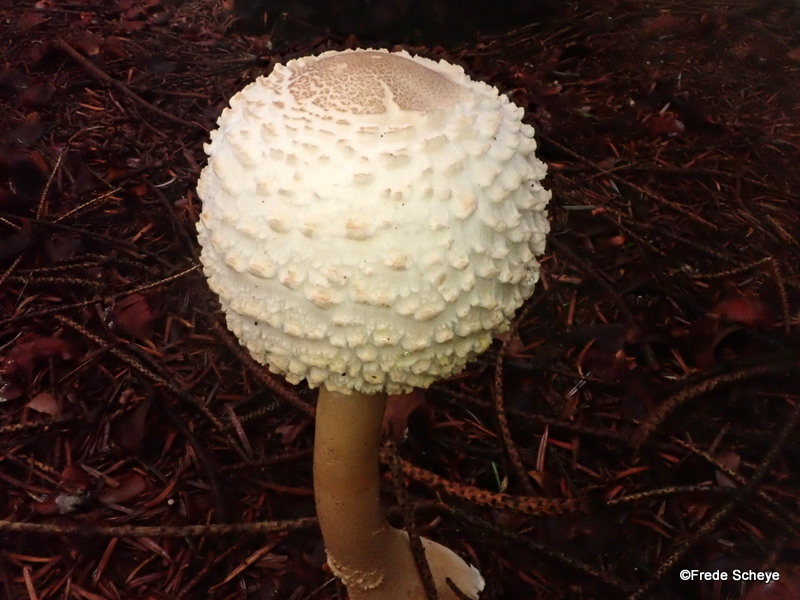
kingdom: Fungi
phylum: Basidiomycota
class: Agaricomycetes
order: Agaricales
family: Agaricaceae
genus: Leucoagaricus
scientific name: Leucoagaricus nympharum
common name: gran-silkehat
